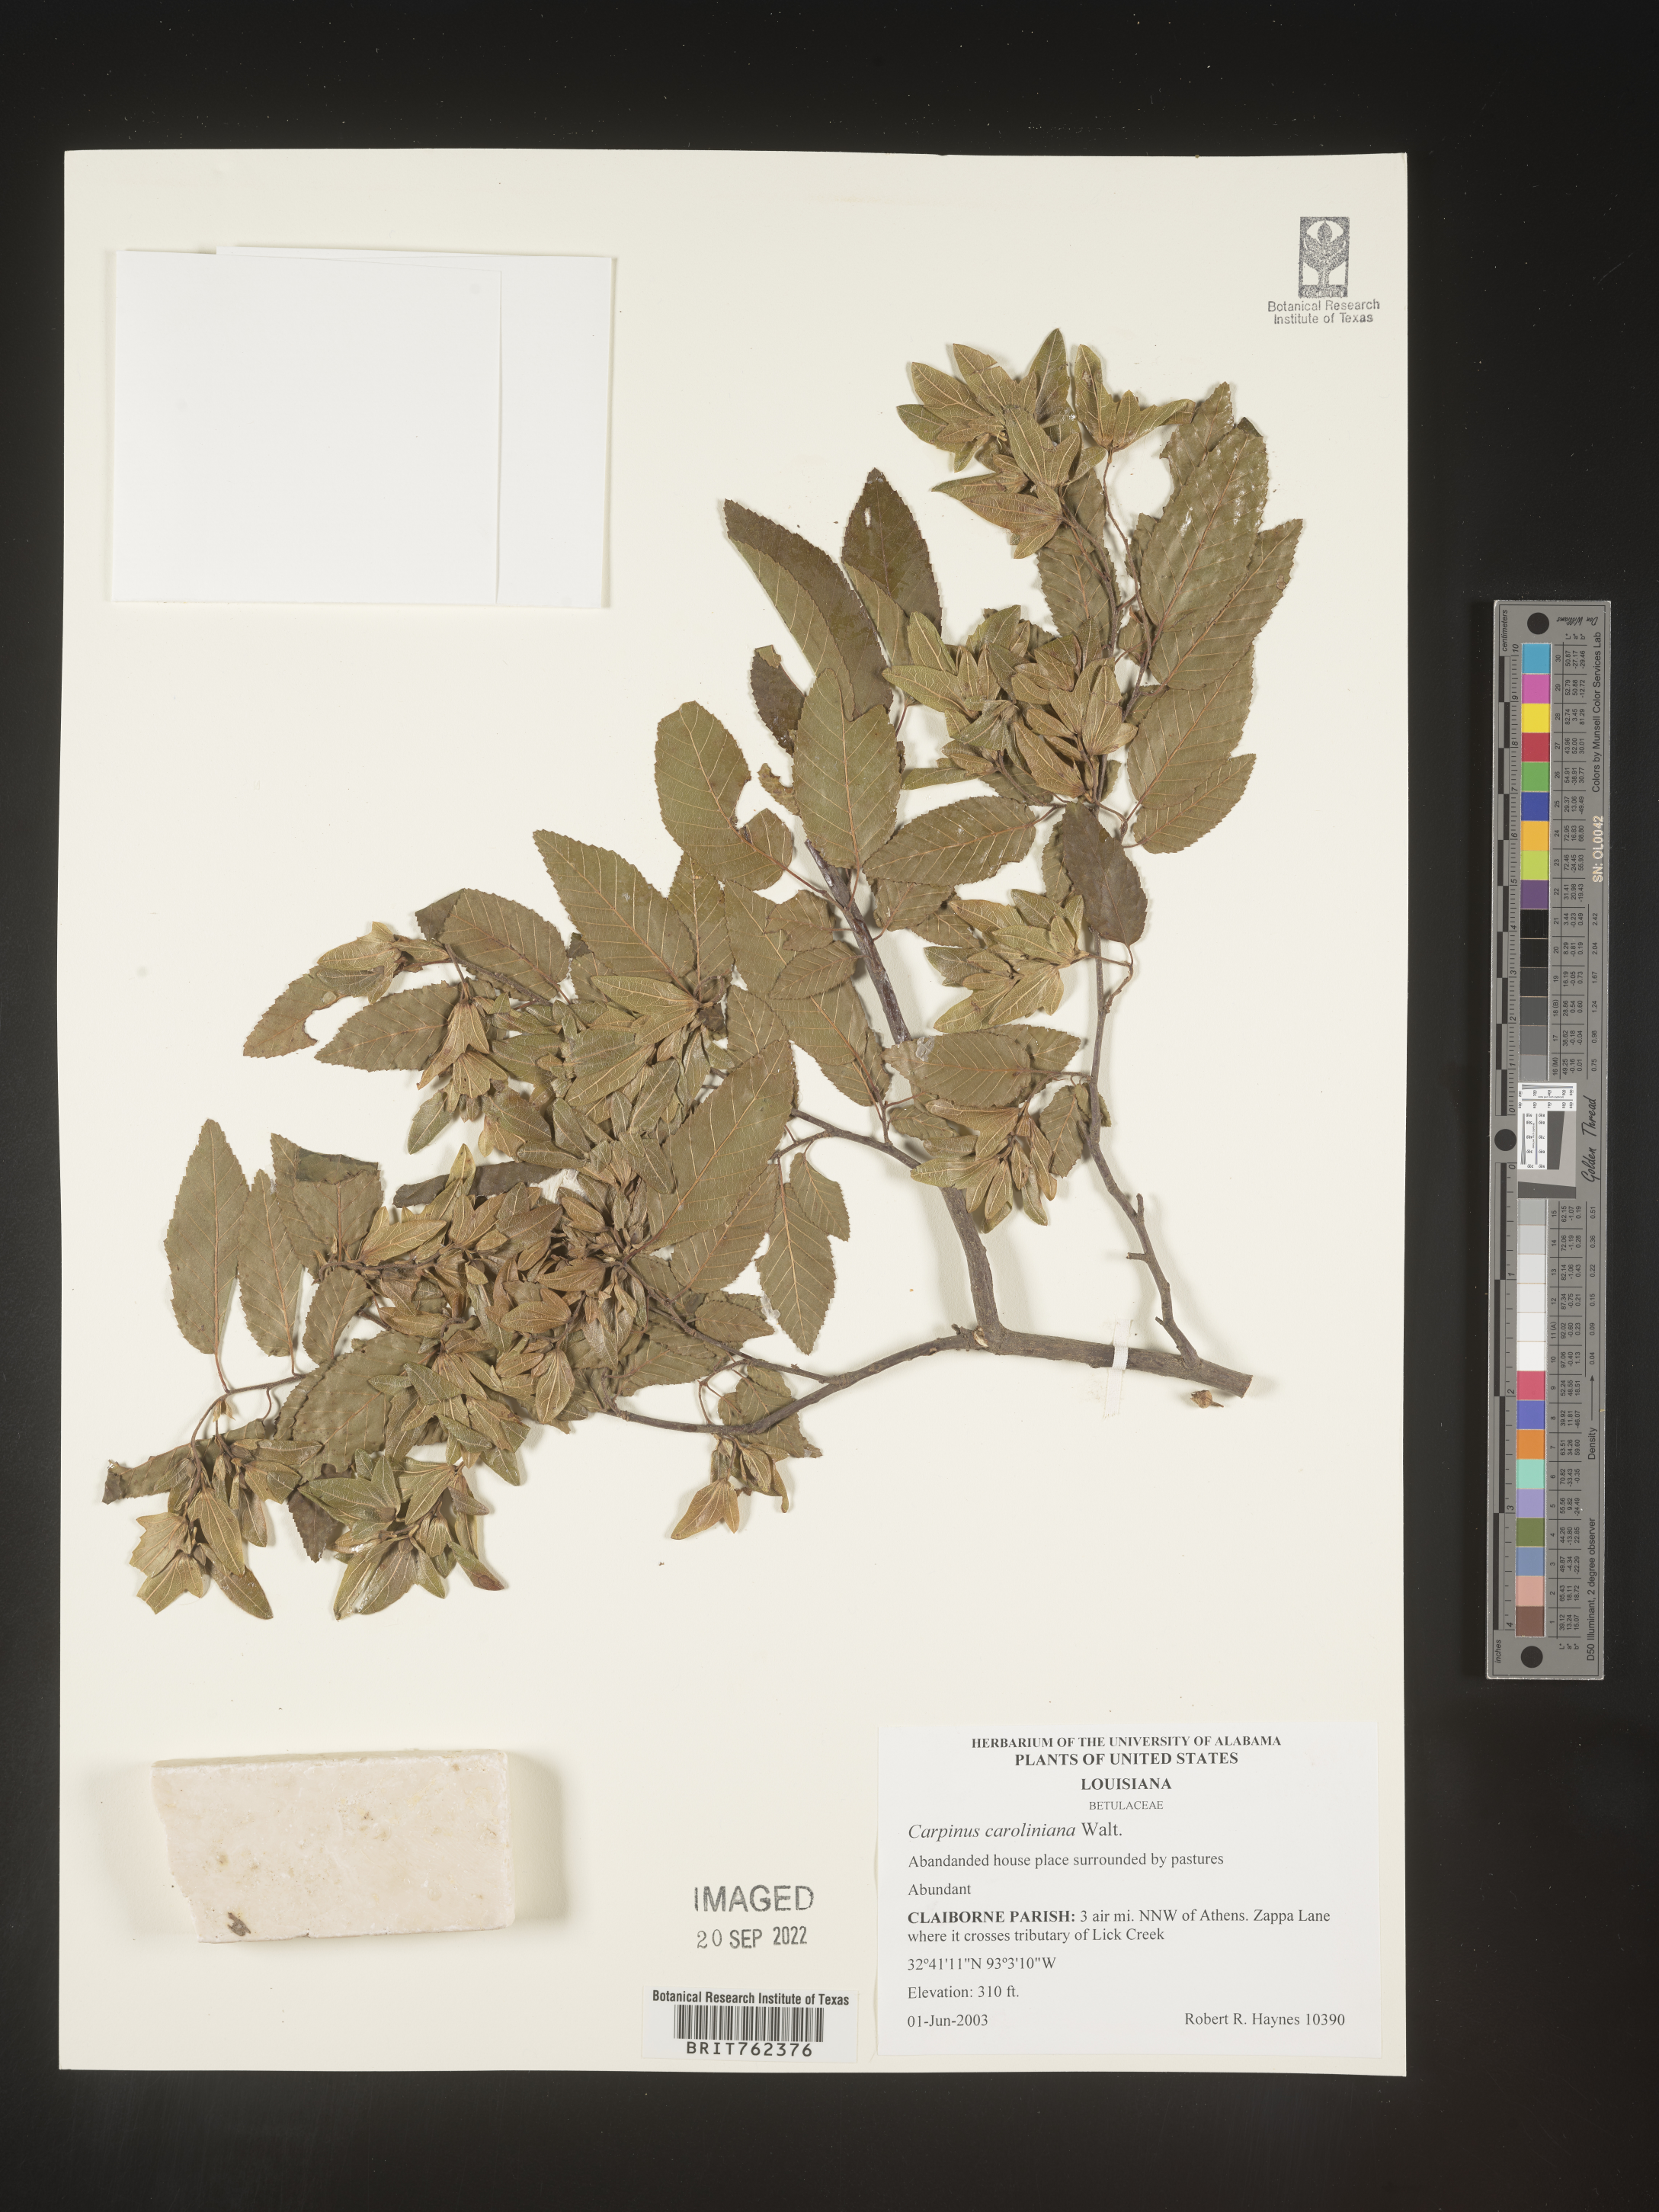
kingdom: Plantae
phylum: Tracheophyta
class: Magnoliopsida
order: Fagales
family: Betulaceae
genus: Carpinus
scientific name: Carpinus caroliniana
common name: American hornbeam
